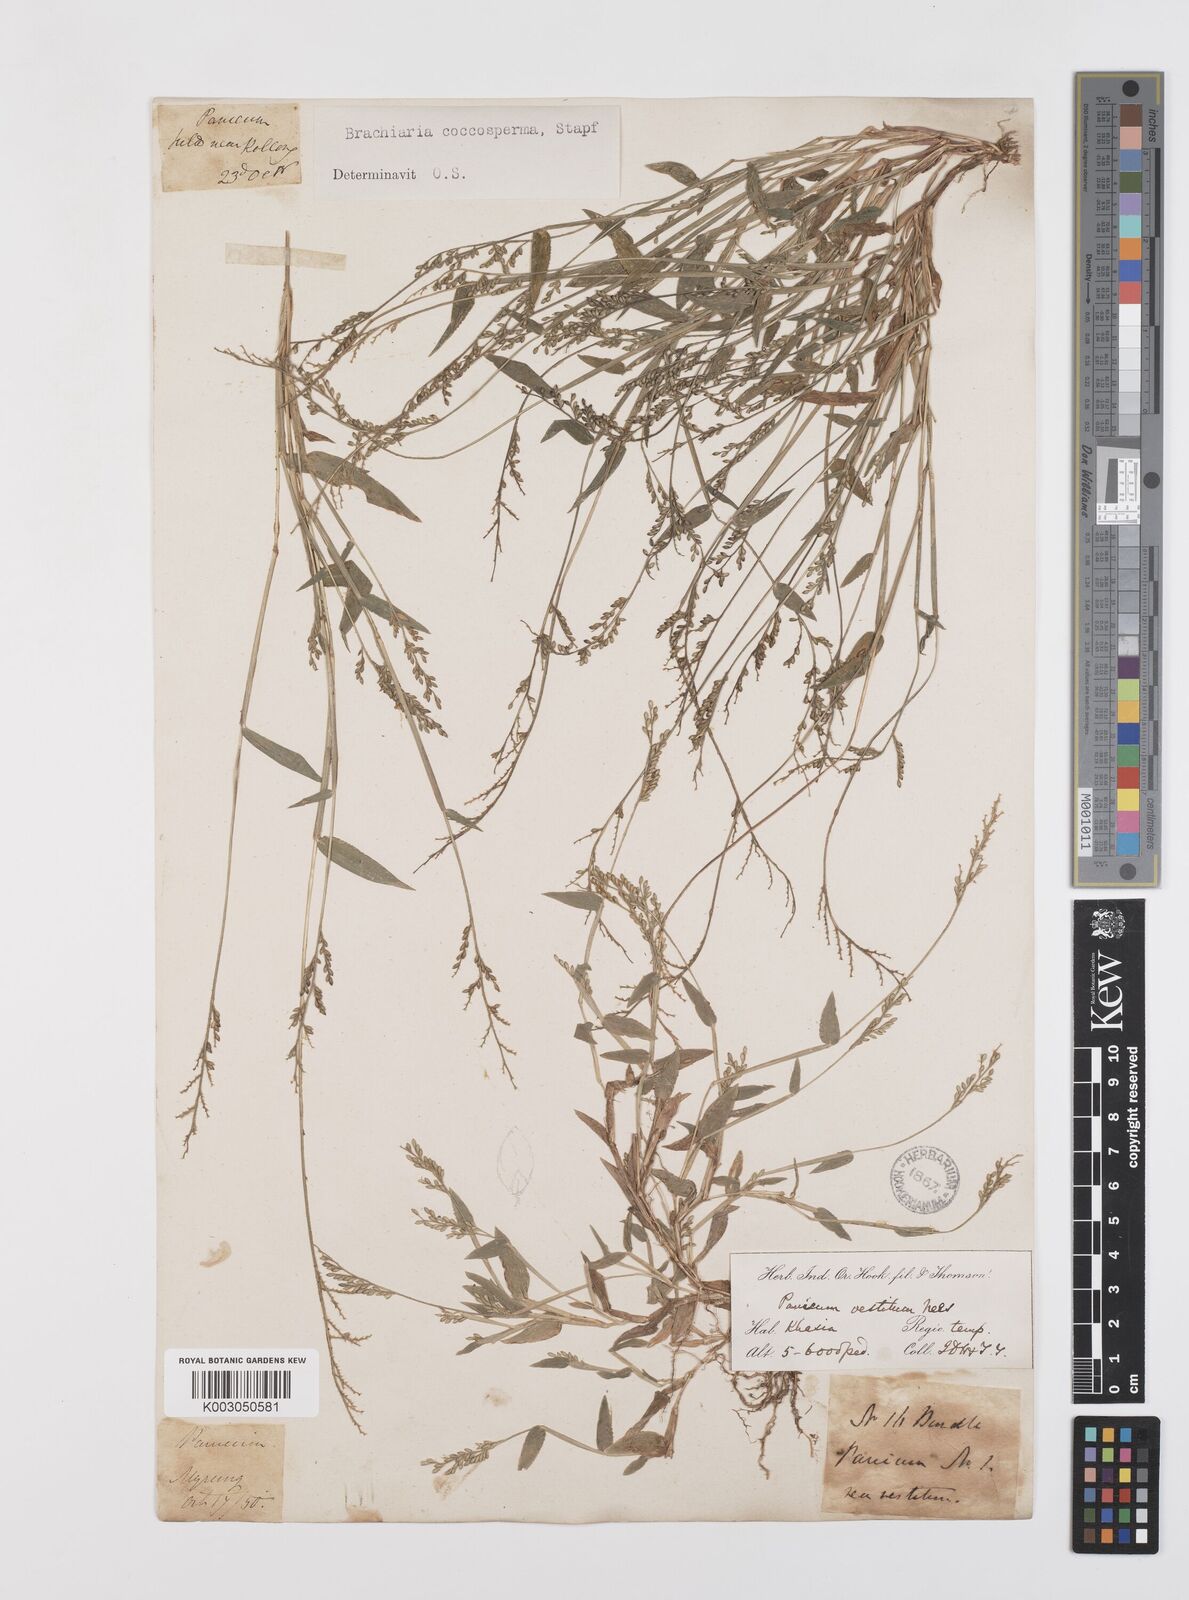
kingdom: Plantae
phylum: Tracheophyta
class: Liliopsida
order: Poales
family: Poaceae
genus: Urochloa
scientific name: Urochloa villosa
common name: Hairy signalgrass
